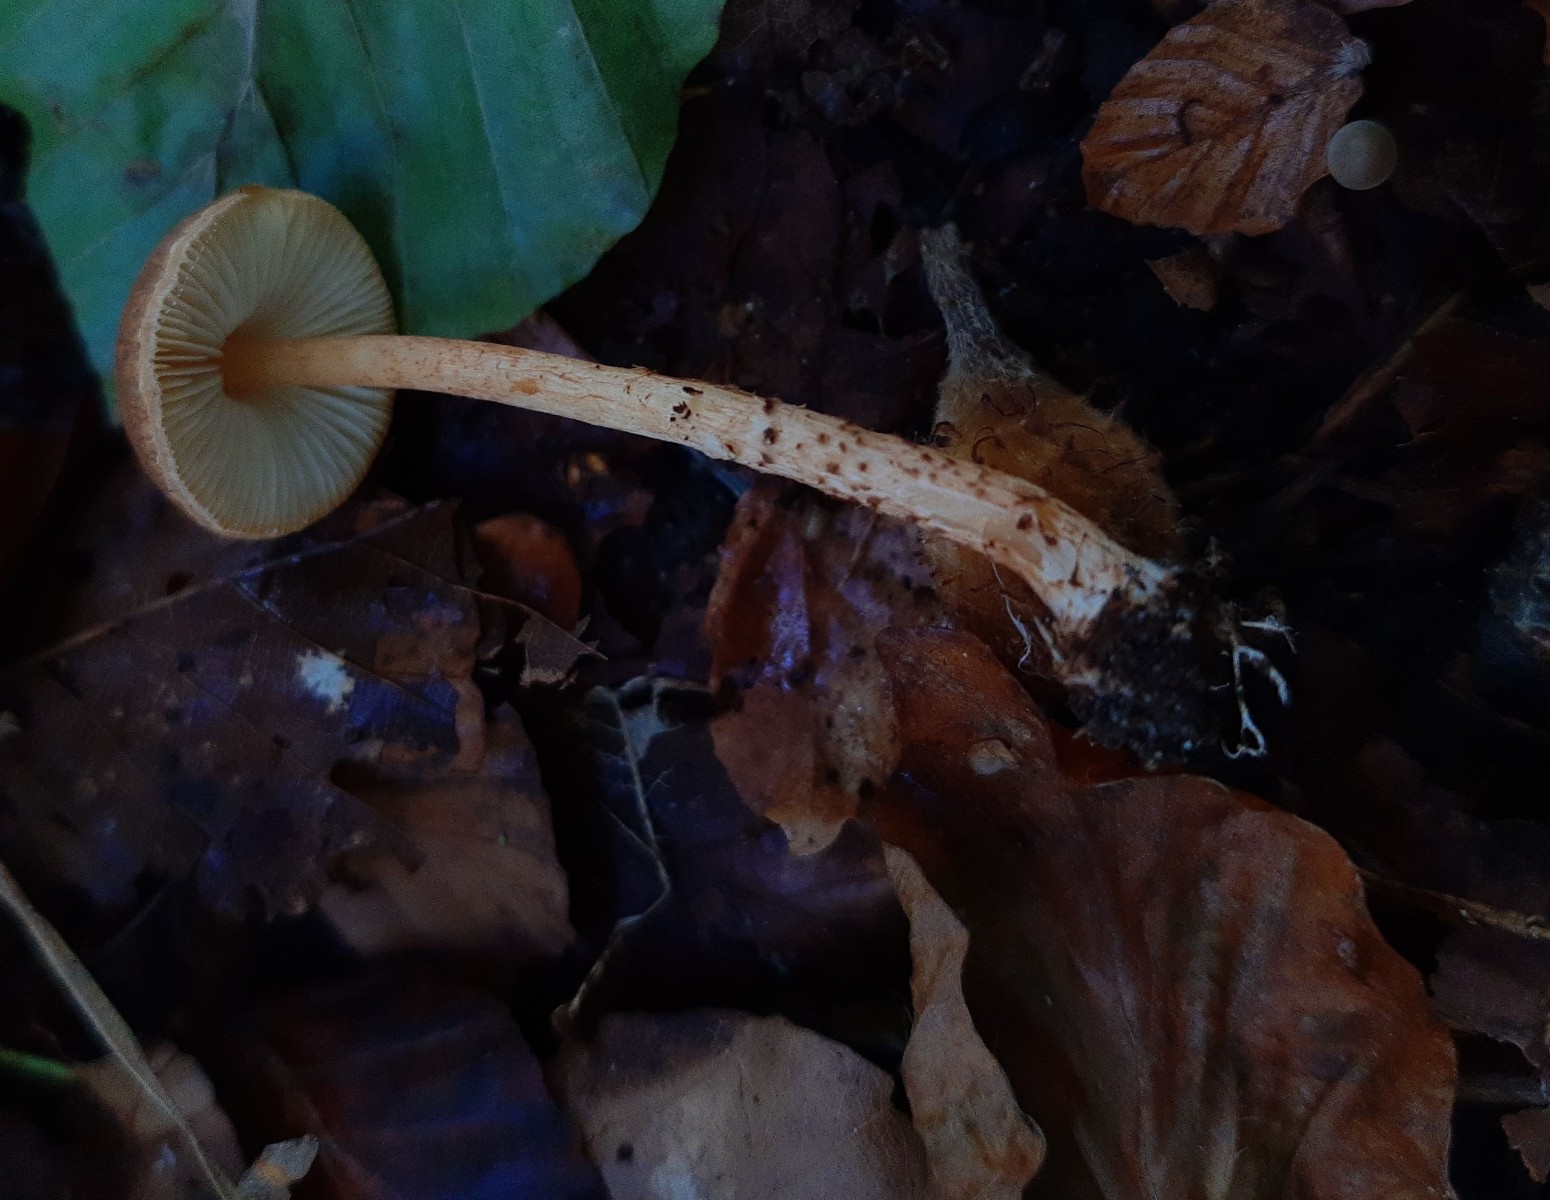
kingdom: Fungi
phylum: Basidiomycota
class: Agaricomycetes
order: Agaricales
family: Agaricaceae
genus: Lepiota
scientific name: Lepiota castanea
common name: kastaniebrun parasolhat
